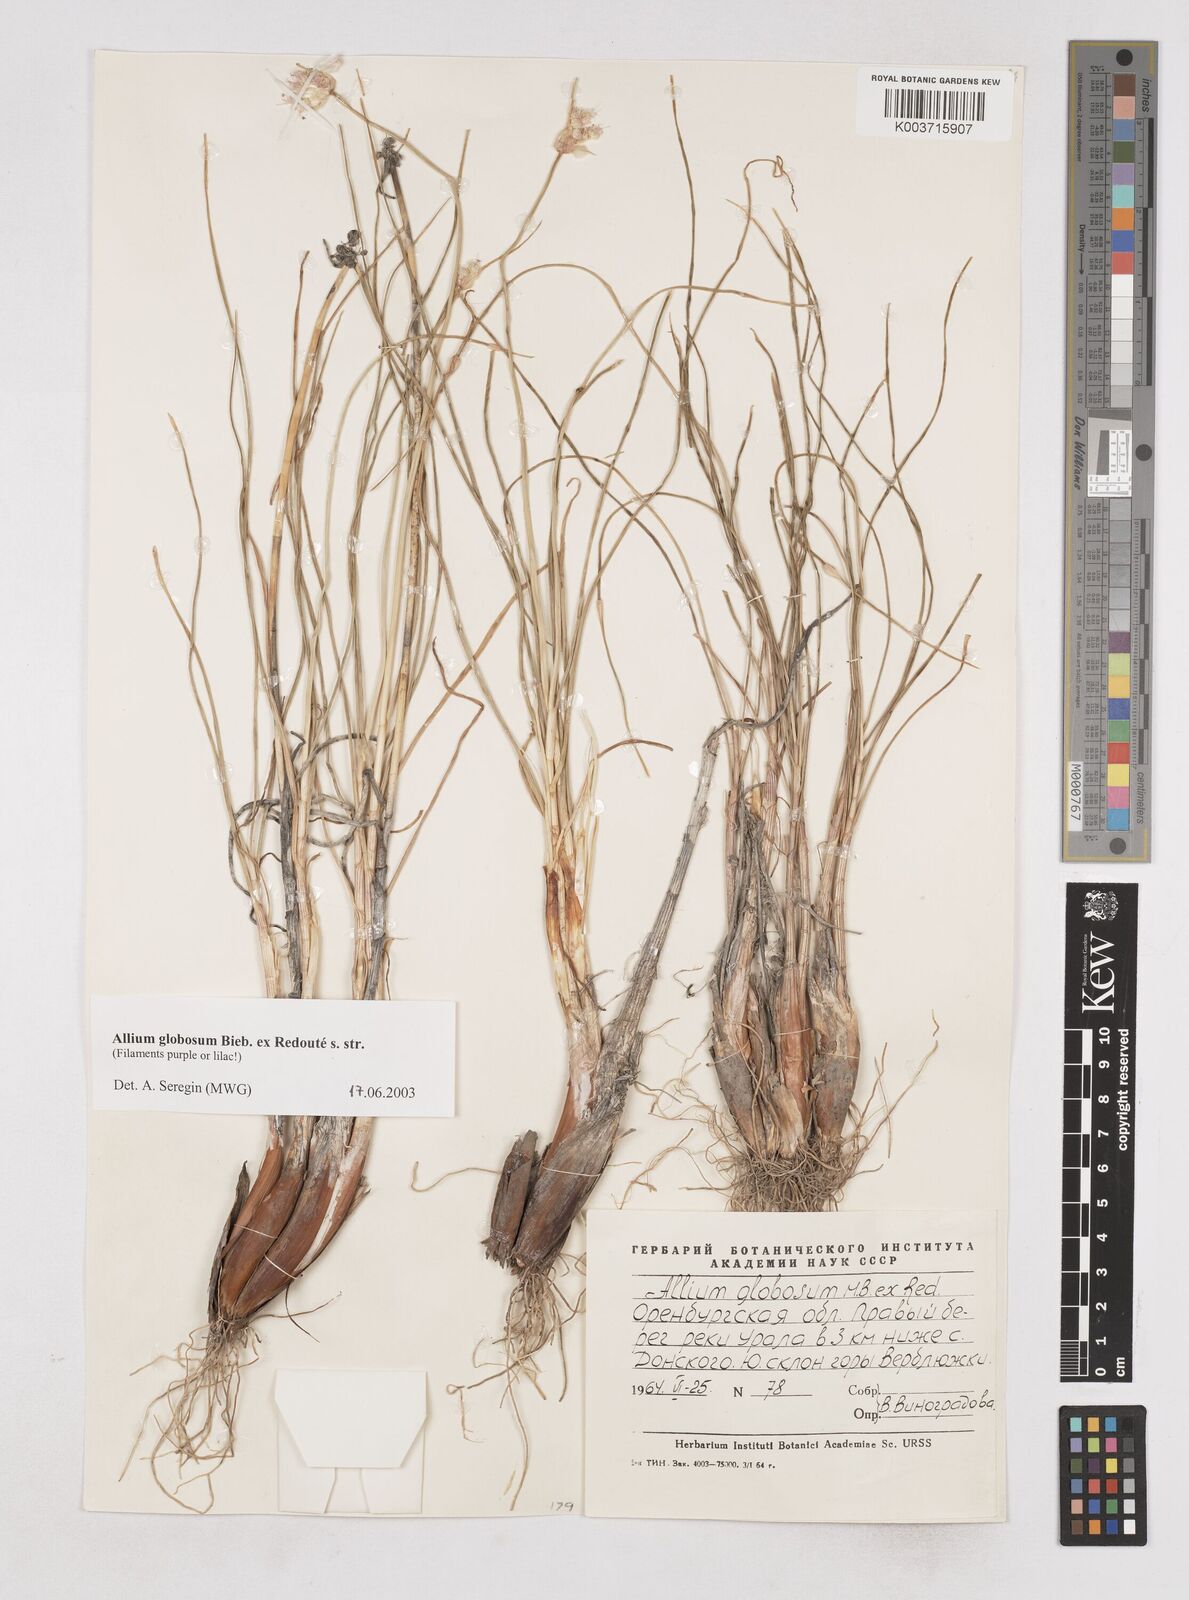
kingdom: Plantae
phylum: Tracheophyta
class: Liliopsida
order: Asparagales
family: Amaryllidaceae
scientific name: Amaryllidaceae
